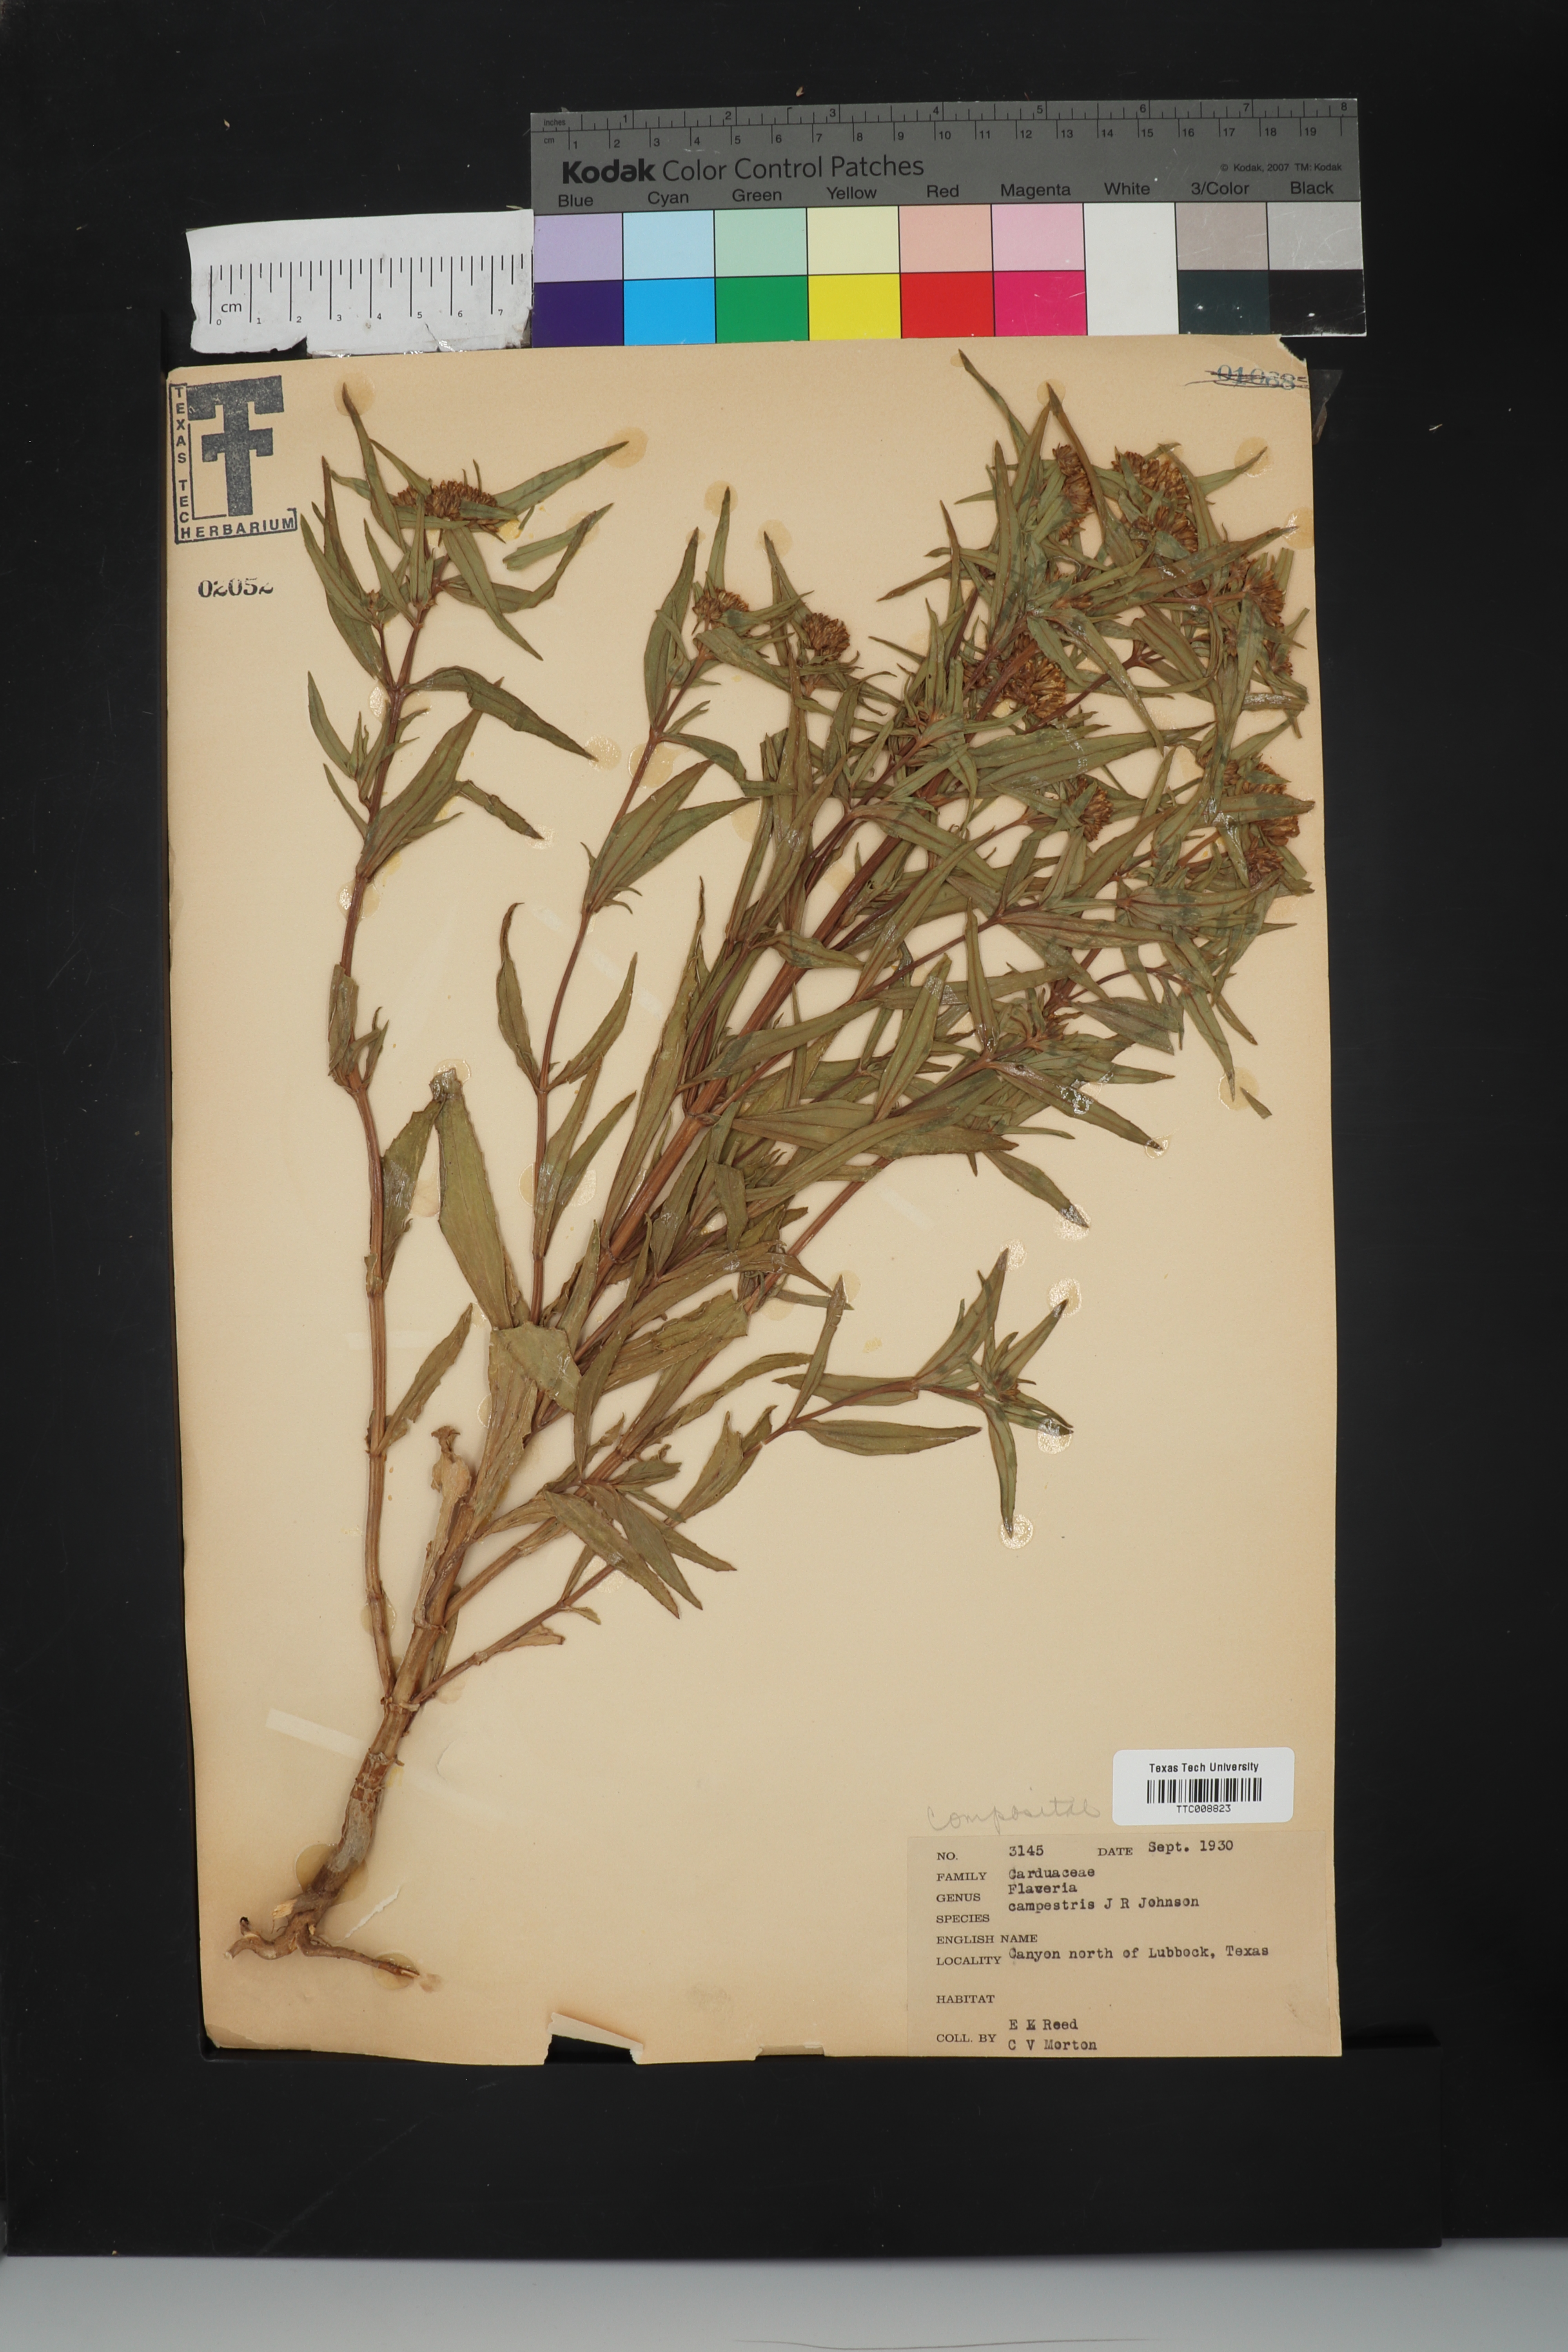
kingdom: Plantae
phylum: Tracheophyta
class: Magnoliopsida
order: Asterales
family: Asteraceae
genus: Flaveria
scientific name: Flaveria campestris
